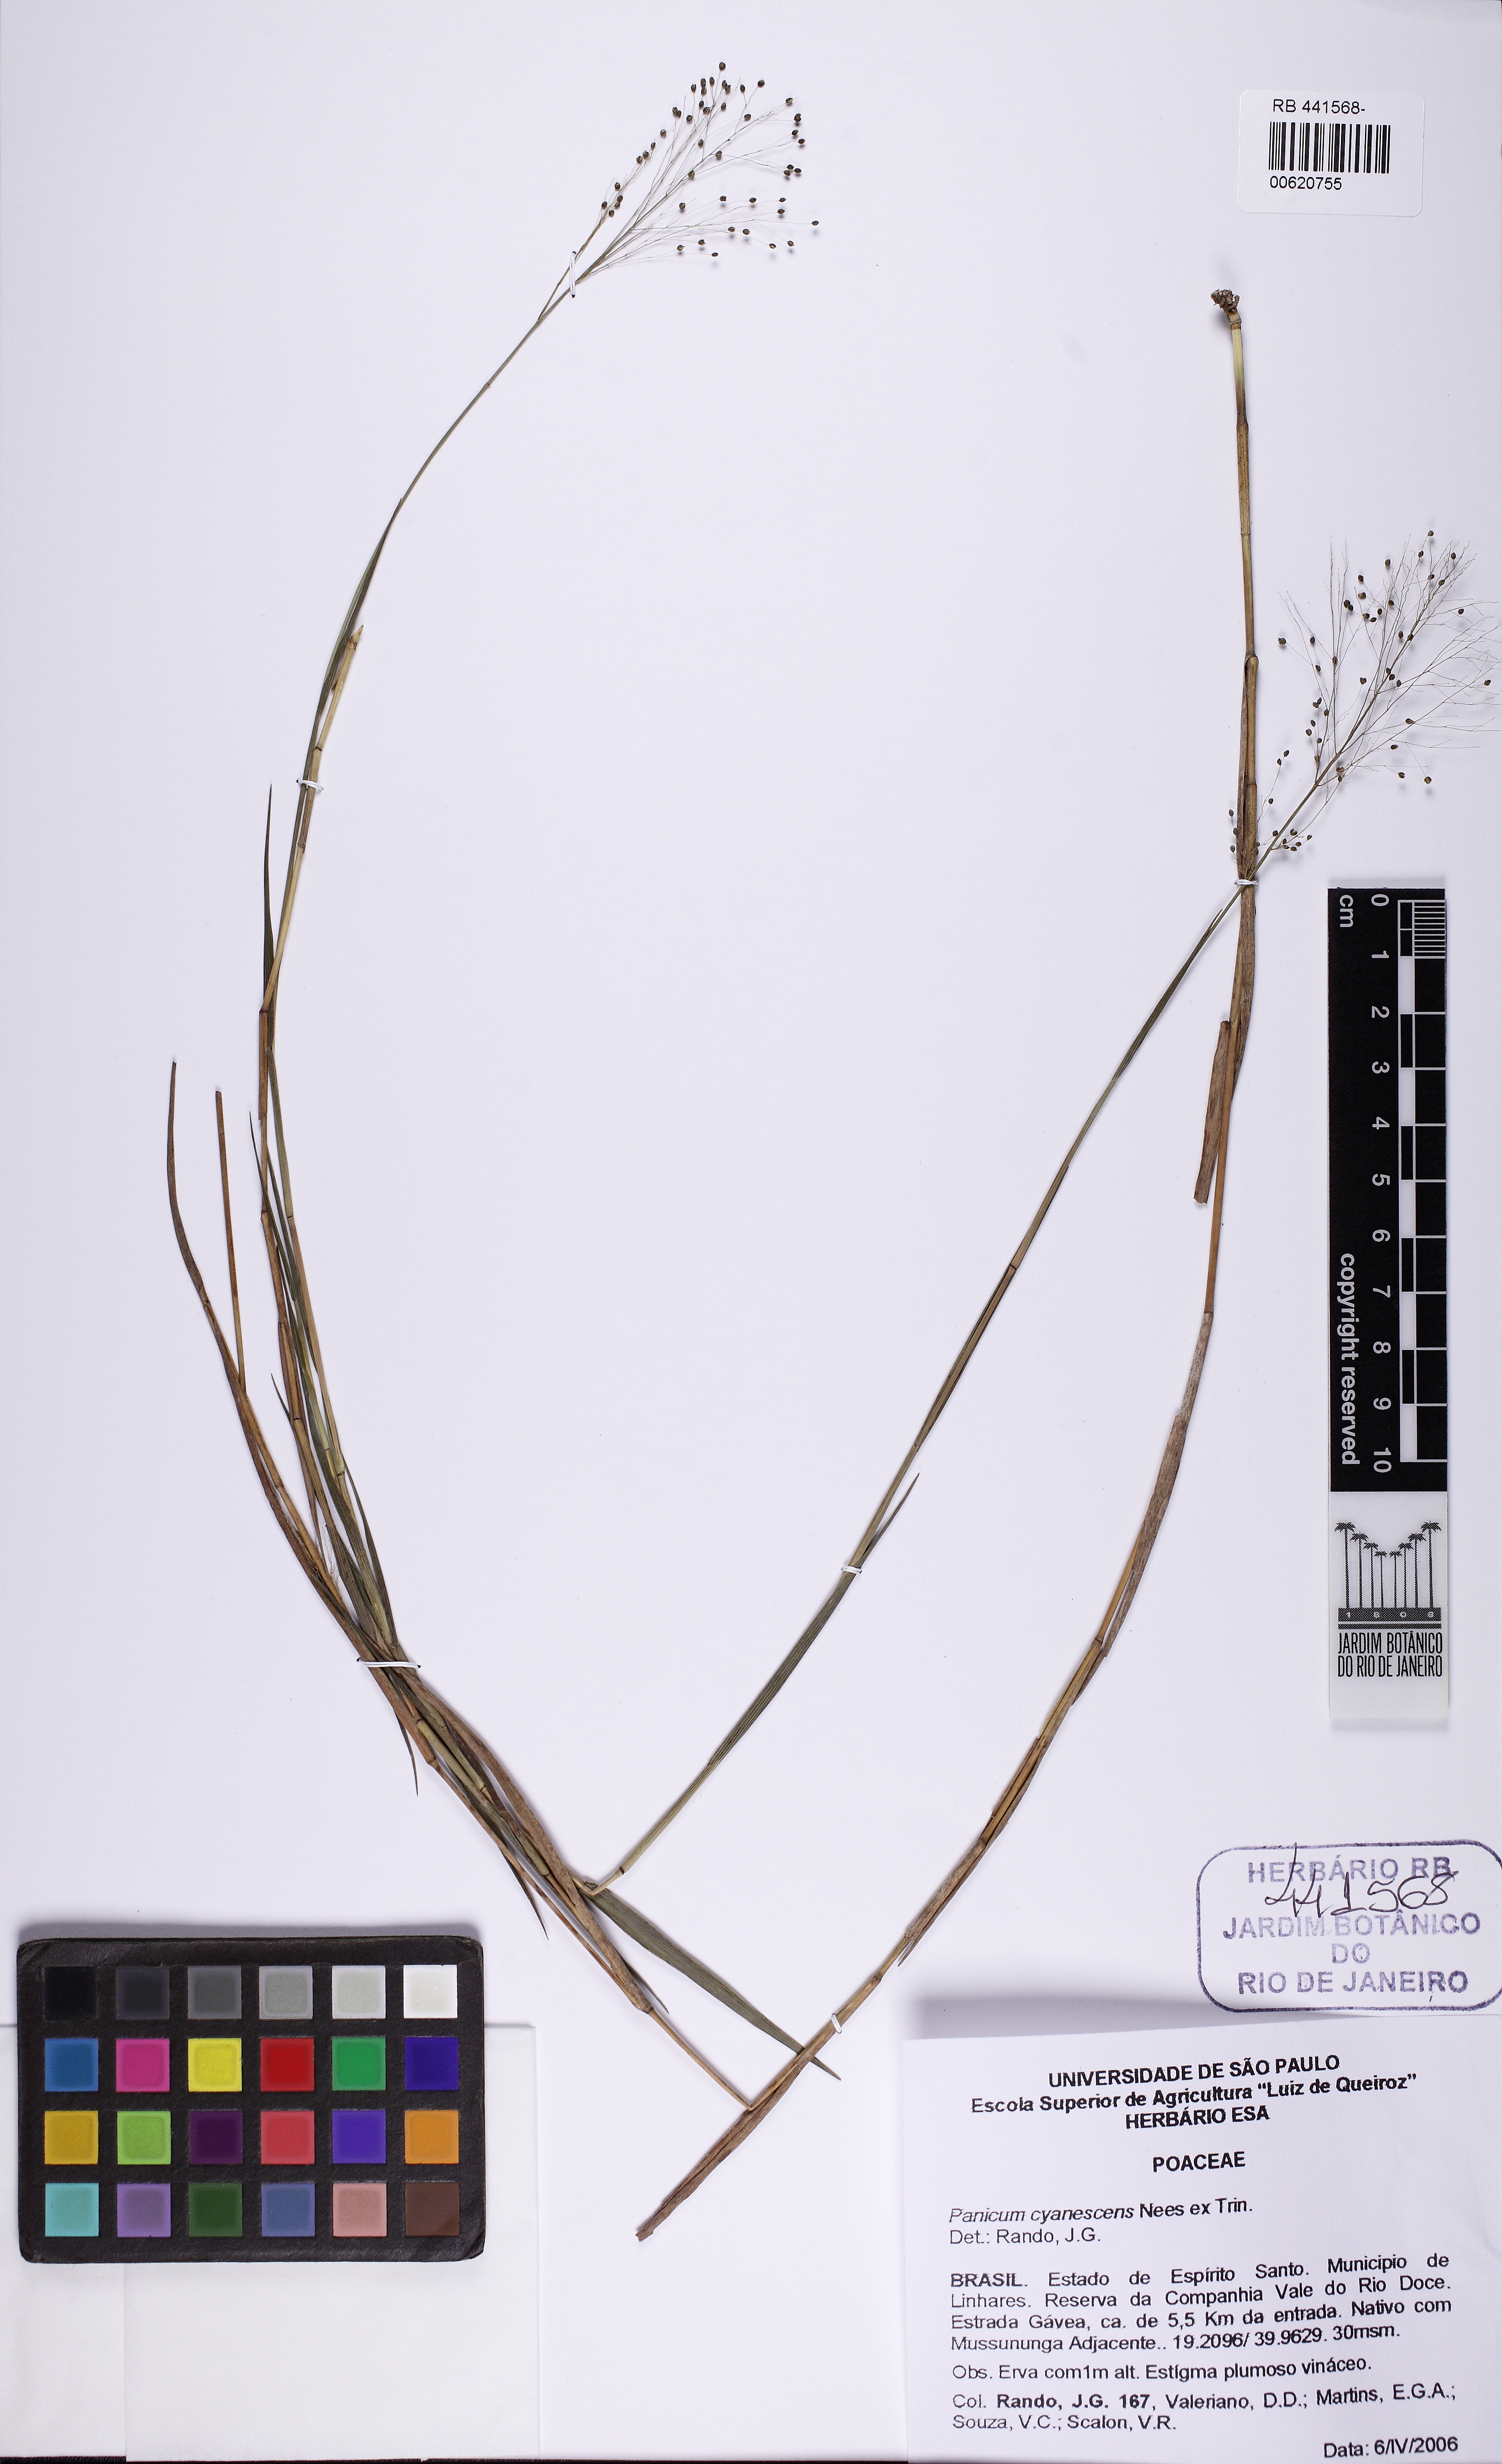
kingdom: Plantae
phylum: Tracheophyta
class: Liliopsida
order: Poales
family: Poaceae
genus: Trichanthecium
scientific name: Trichanthecium cyanescens
